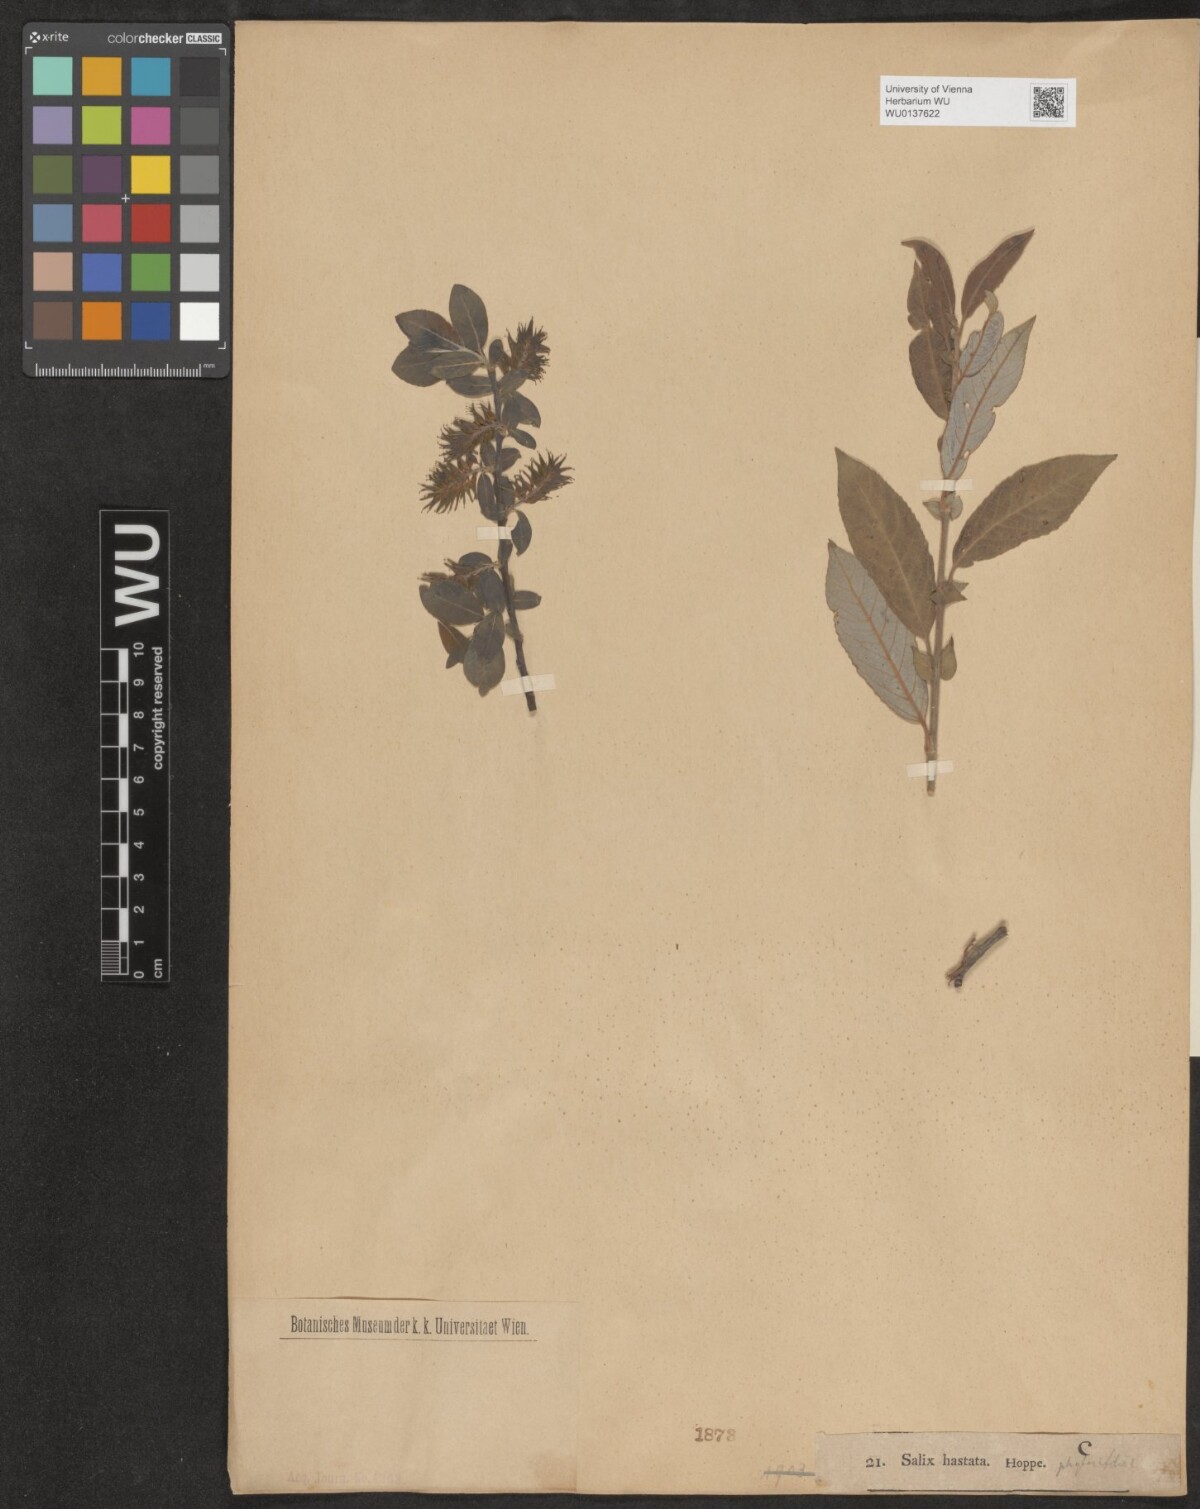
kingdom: Plantae
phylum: Tracheophyta
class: Magnoliopsida
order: Malpighiales
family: Salicaceae
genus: Salix
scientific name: Salix hastata
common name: Halberd willow
